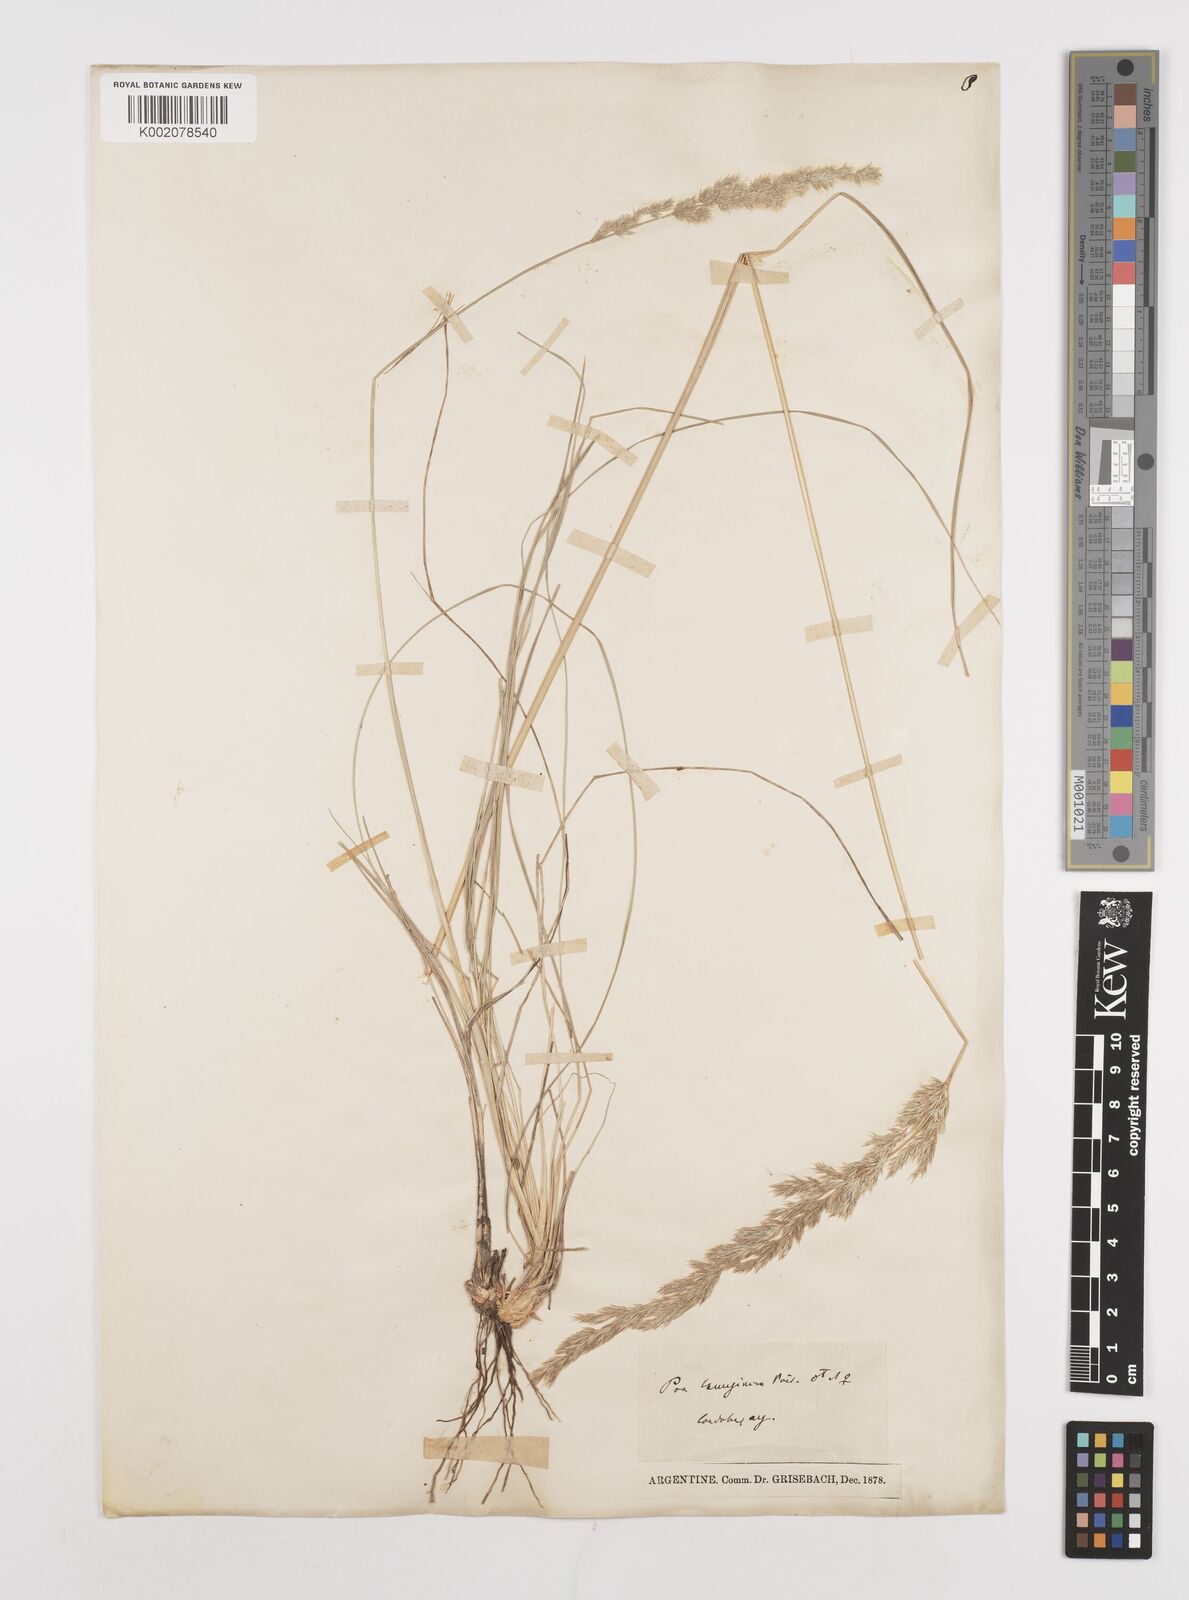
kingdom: Plantae
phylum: Tracheophyta
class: Liliopsida
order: Poales
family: Poaceae
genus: Poa
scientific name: Poa lanuginosa
